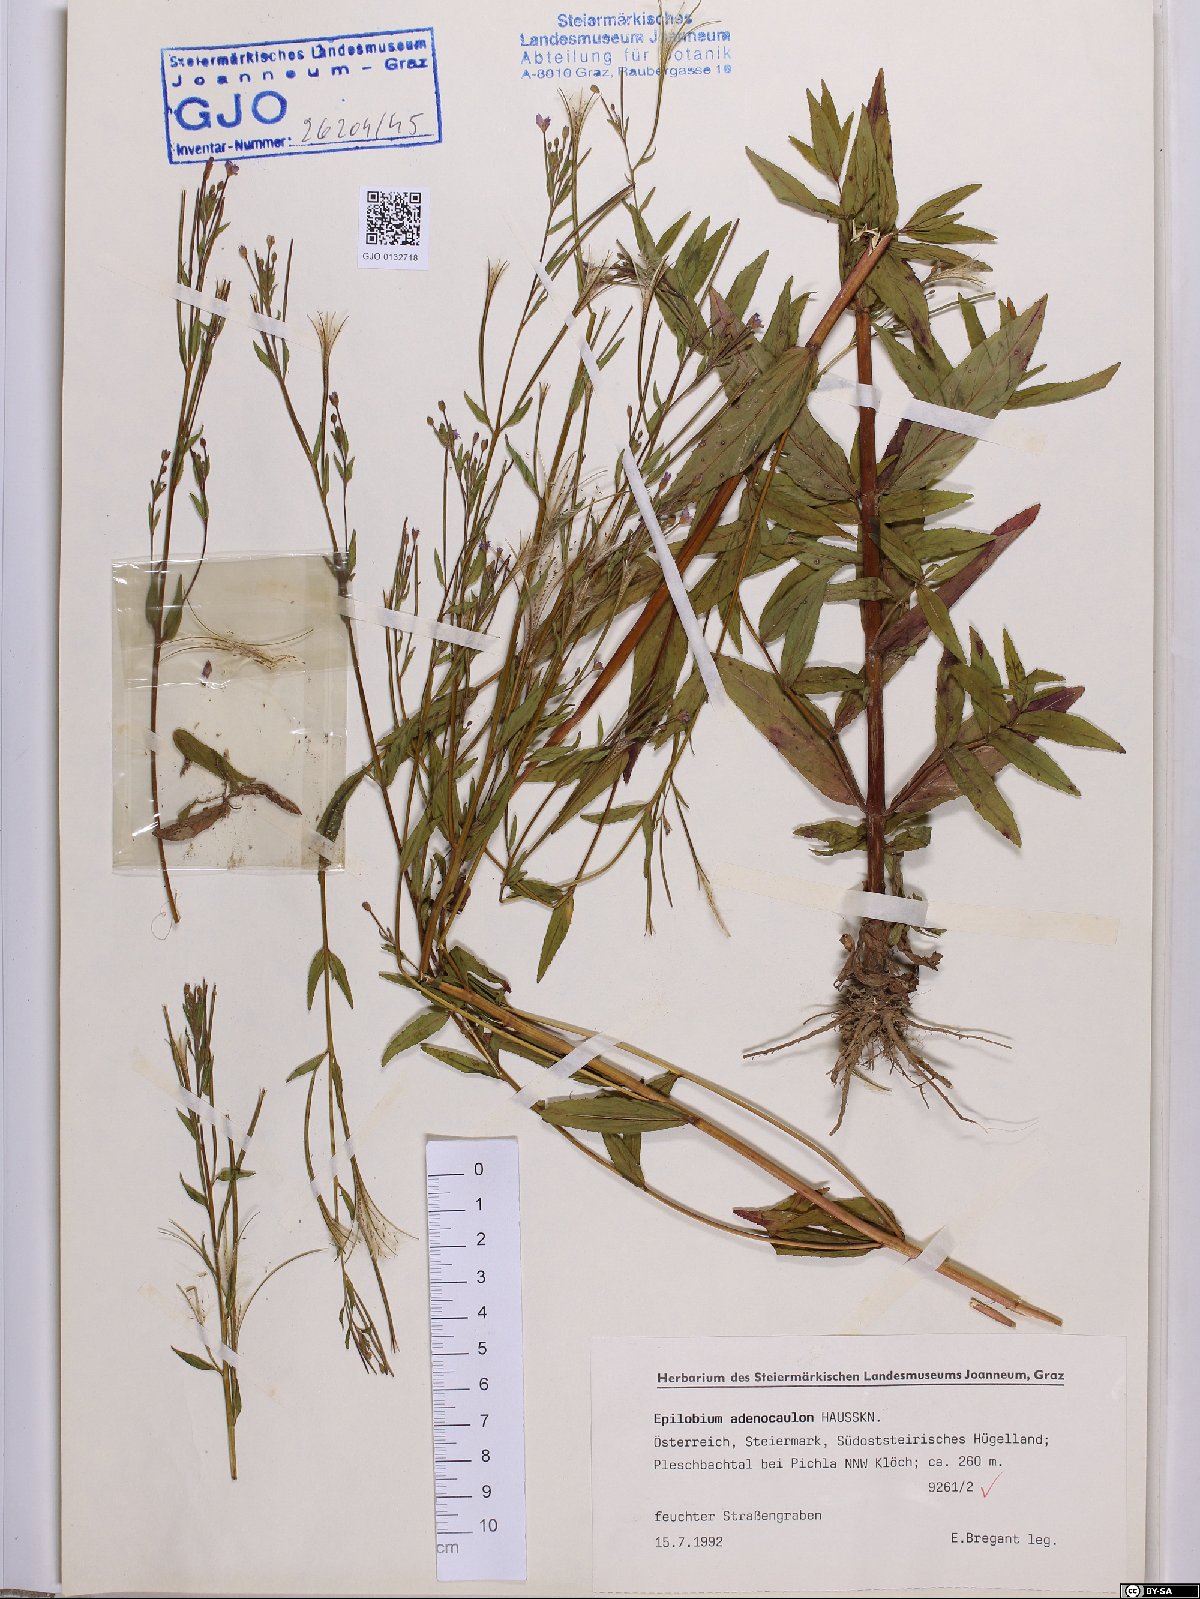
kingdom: Plantae
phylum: Tracheophyta
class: Magnoliopsida
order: Myrtales
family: Onagraceae
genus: Epilobium
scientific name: Epilobium ciliatum
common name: American willowherb
